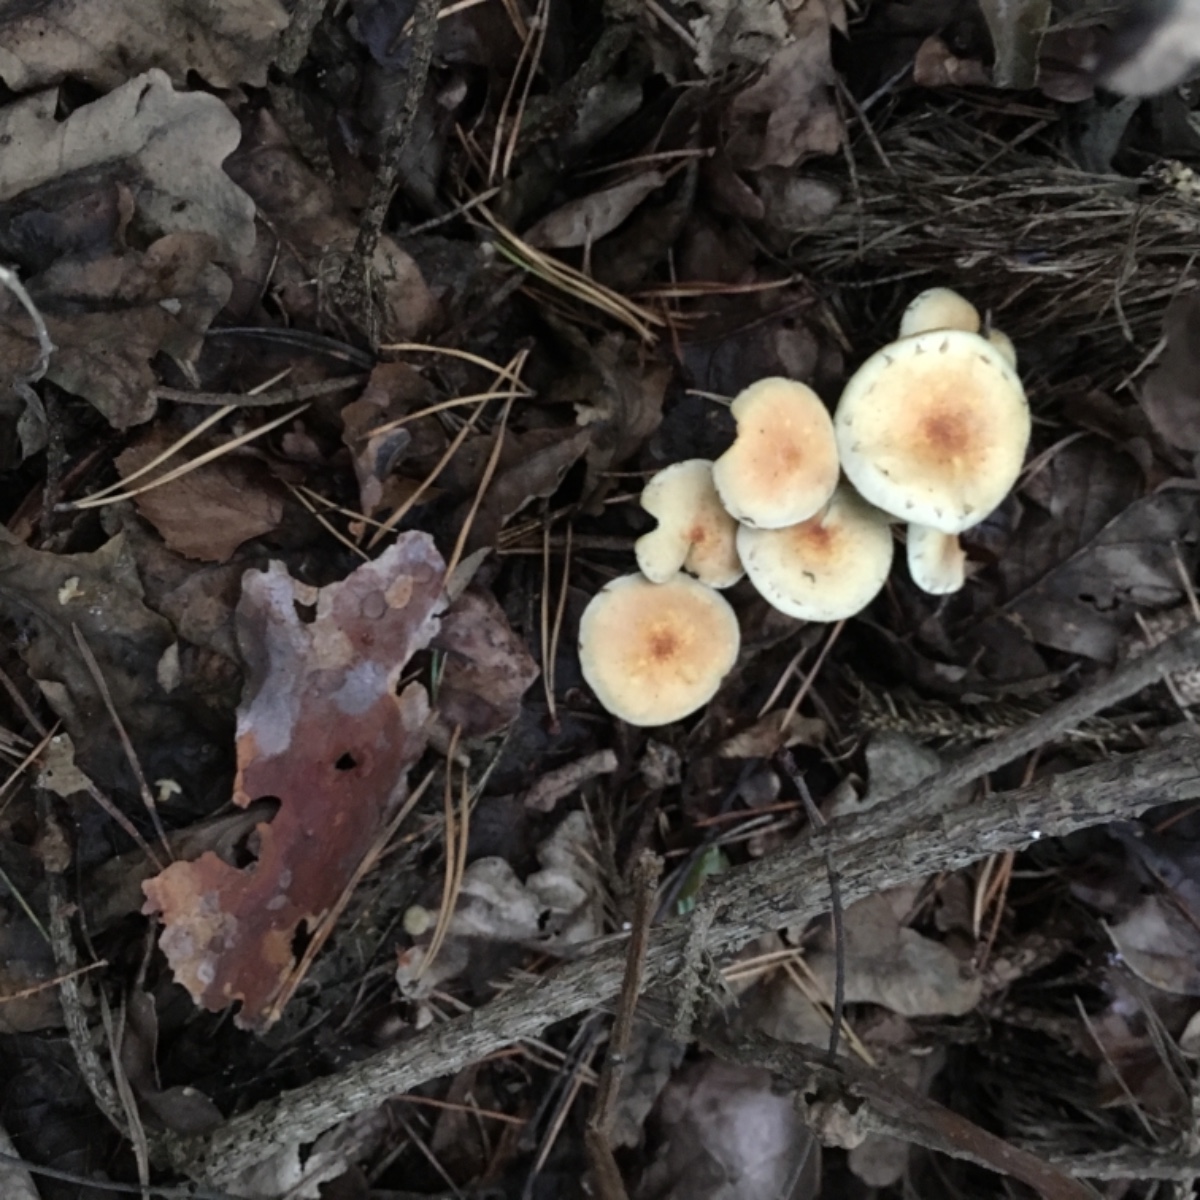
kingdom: Fungi
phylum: Basidiomycota
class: Agaricomycetes
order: Agaricales
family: Strophariaceae
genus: Hypholoma
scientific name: Hypholoma fasciculare
